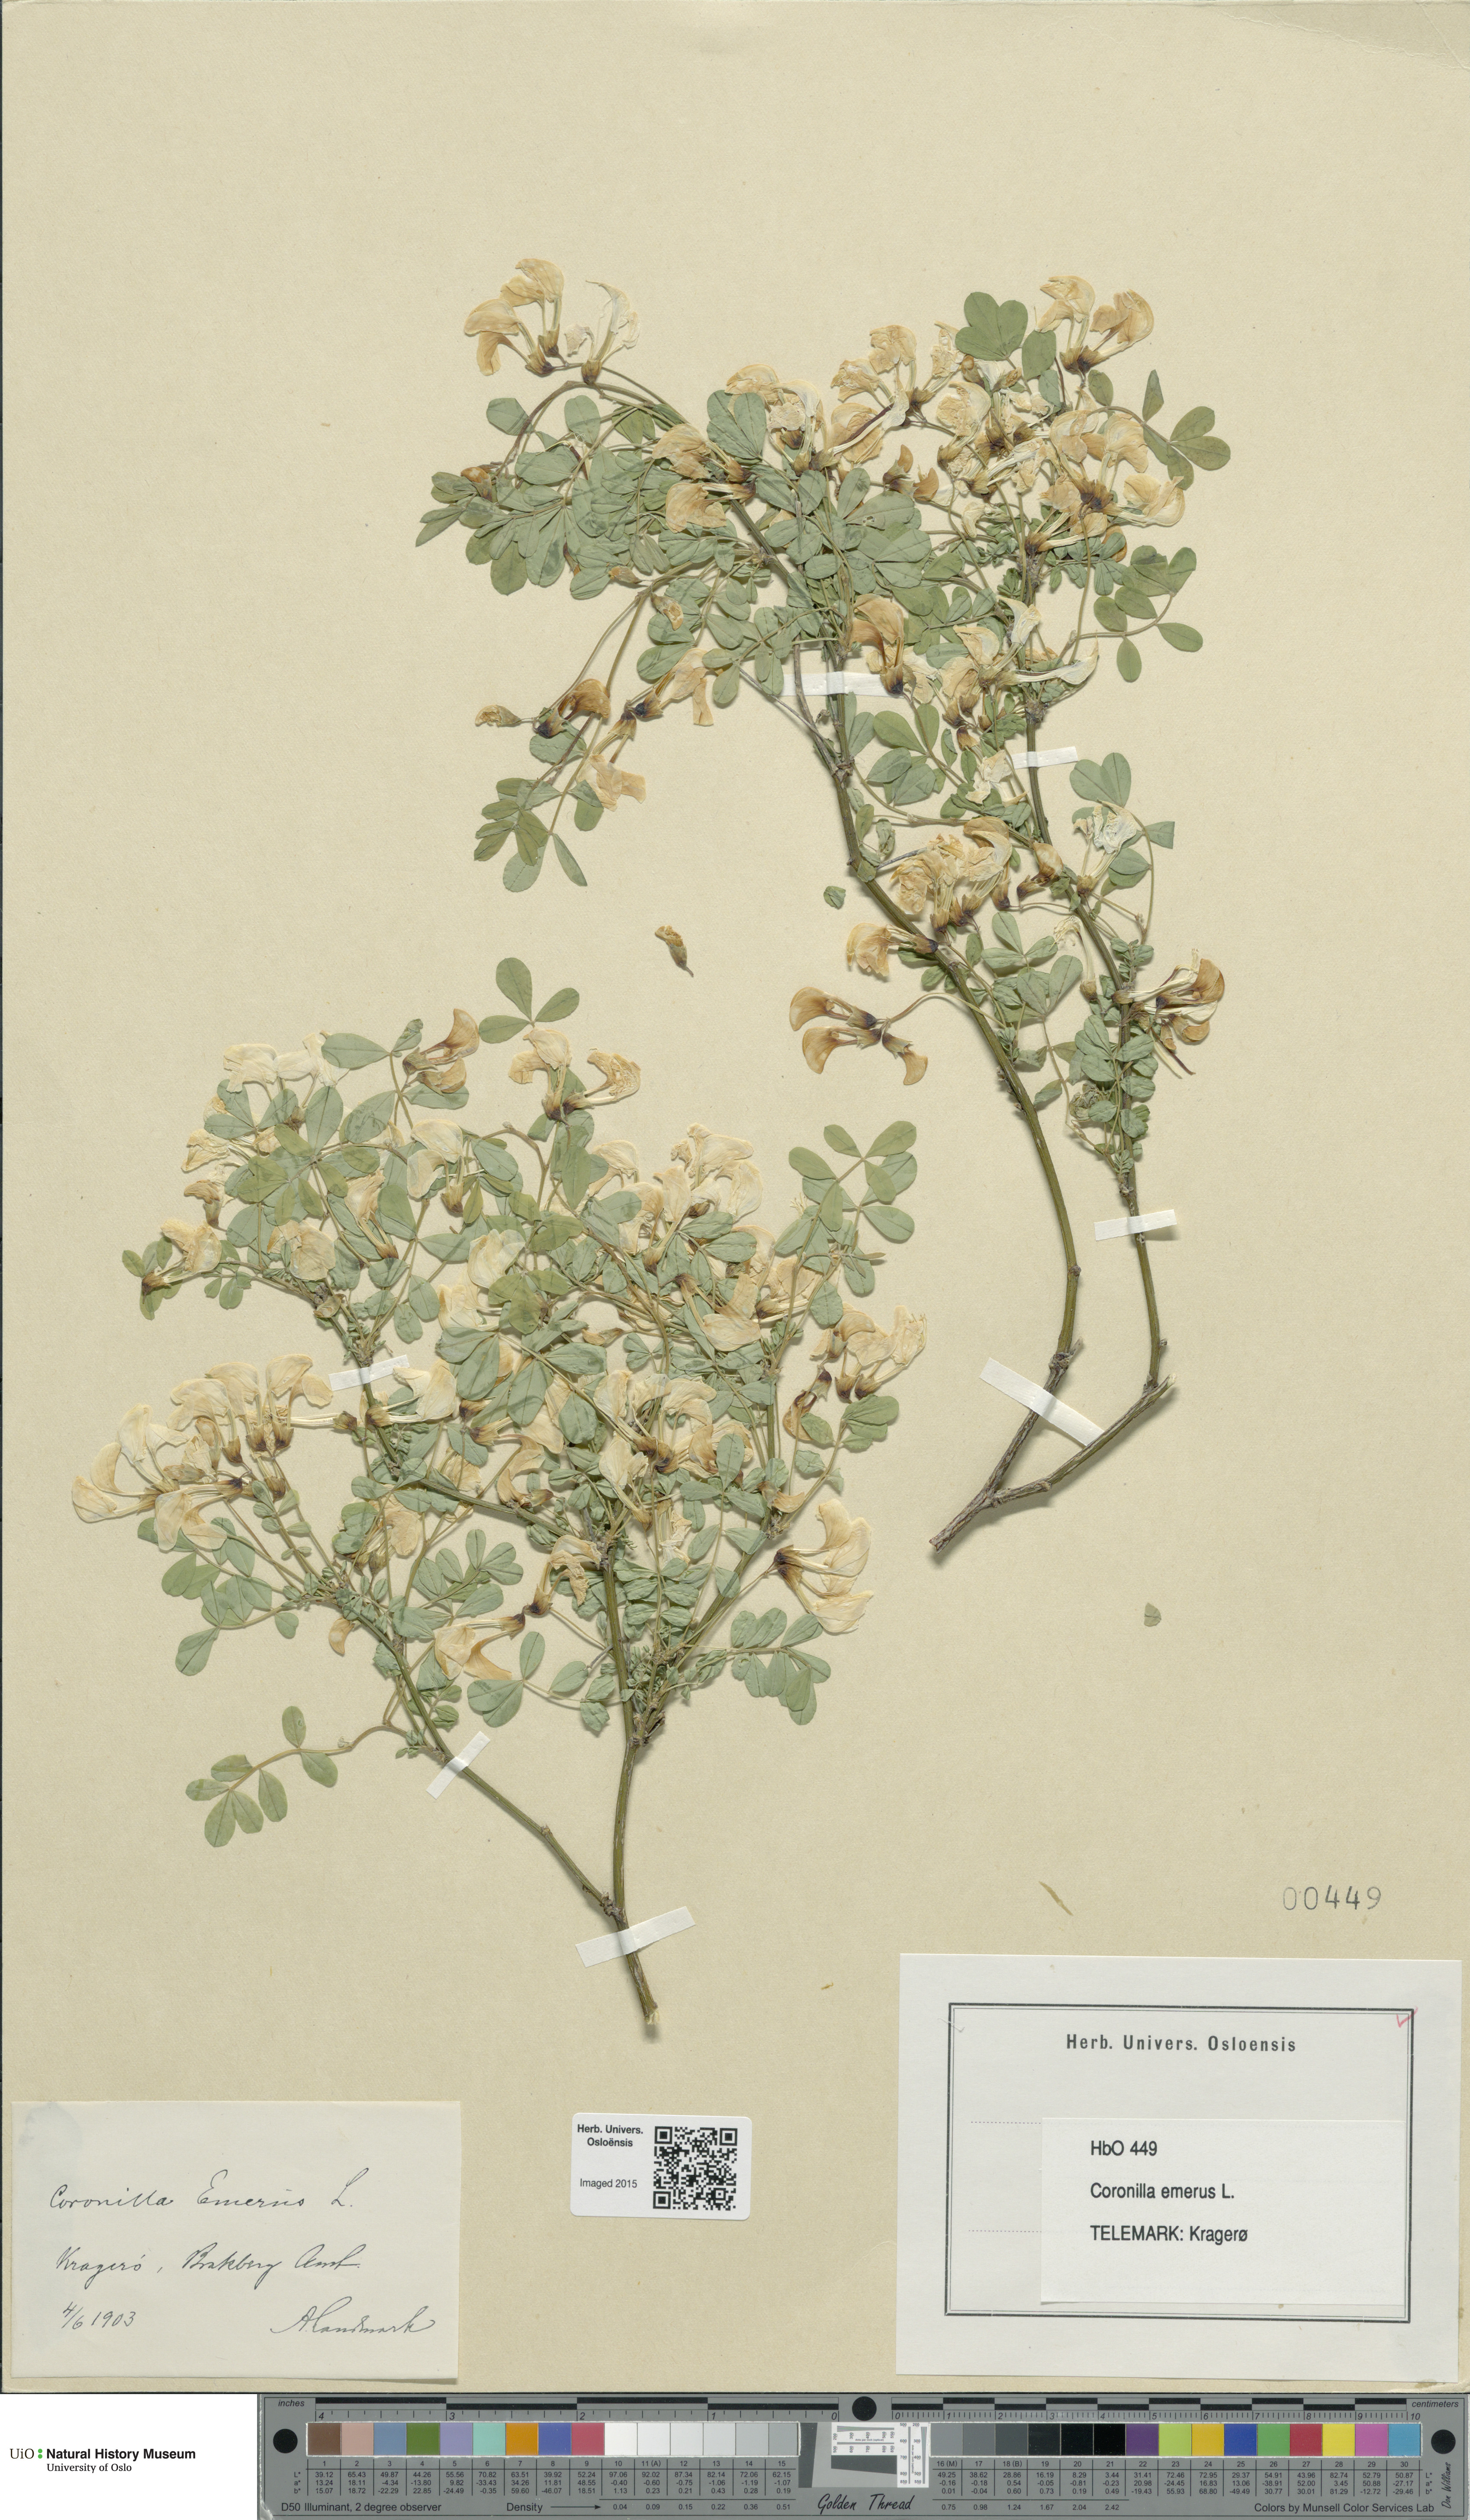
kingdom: Plantae
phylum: Tracheophyta
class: Magnoliopsida
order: Fabales
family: Fabaceae
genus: Hippocrepis
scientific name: Hippocrepis emerus
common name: Scorpion senna
